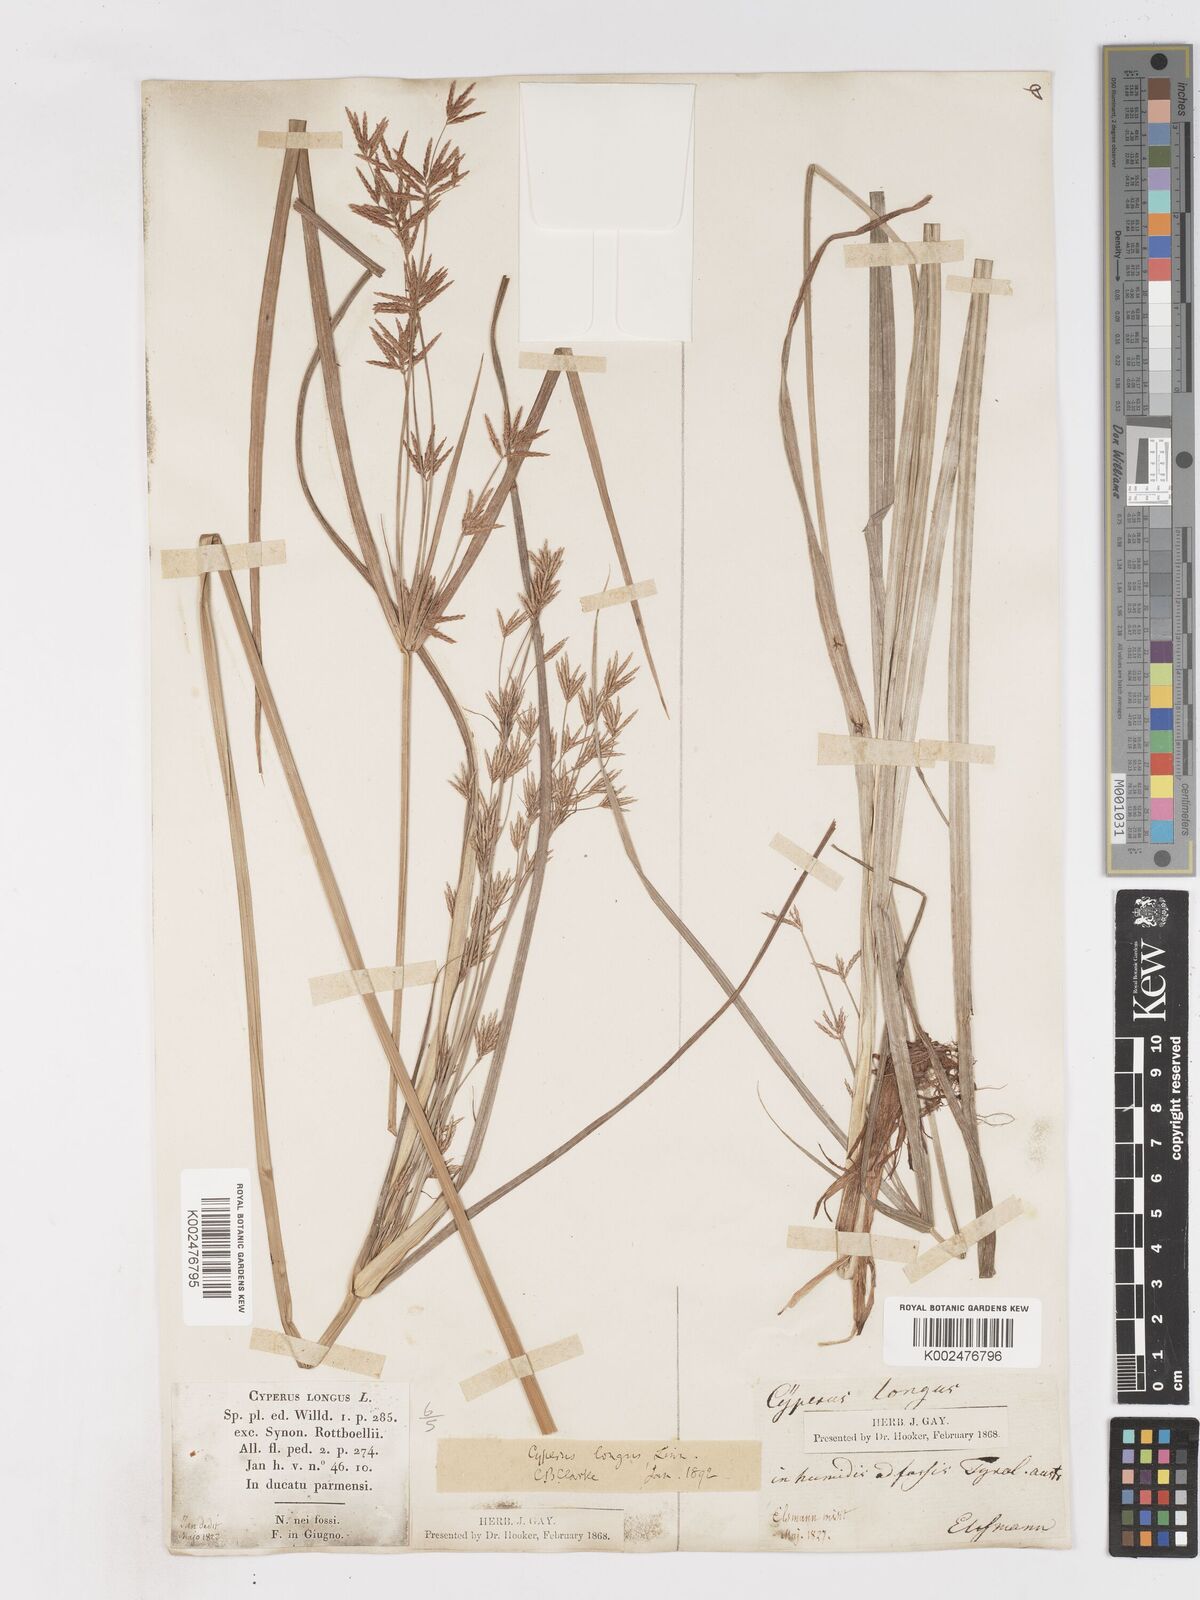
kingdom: Plantae
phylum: Tracheophyta
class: Liliopsida
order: Poales
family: Cyperaceae
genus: Cyperus
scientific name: Cyperus longus
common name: Galingale
